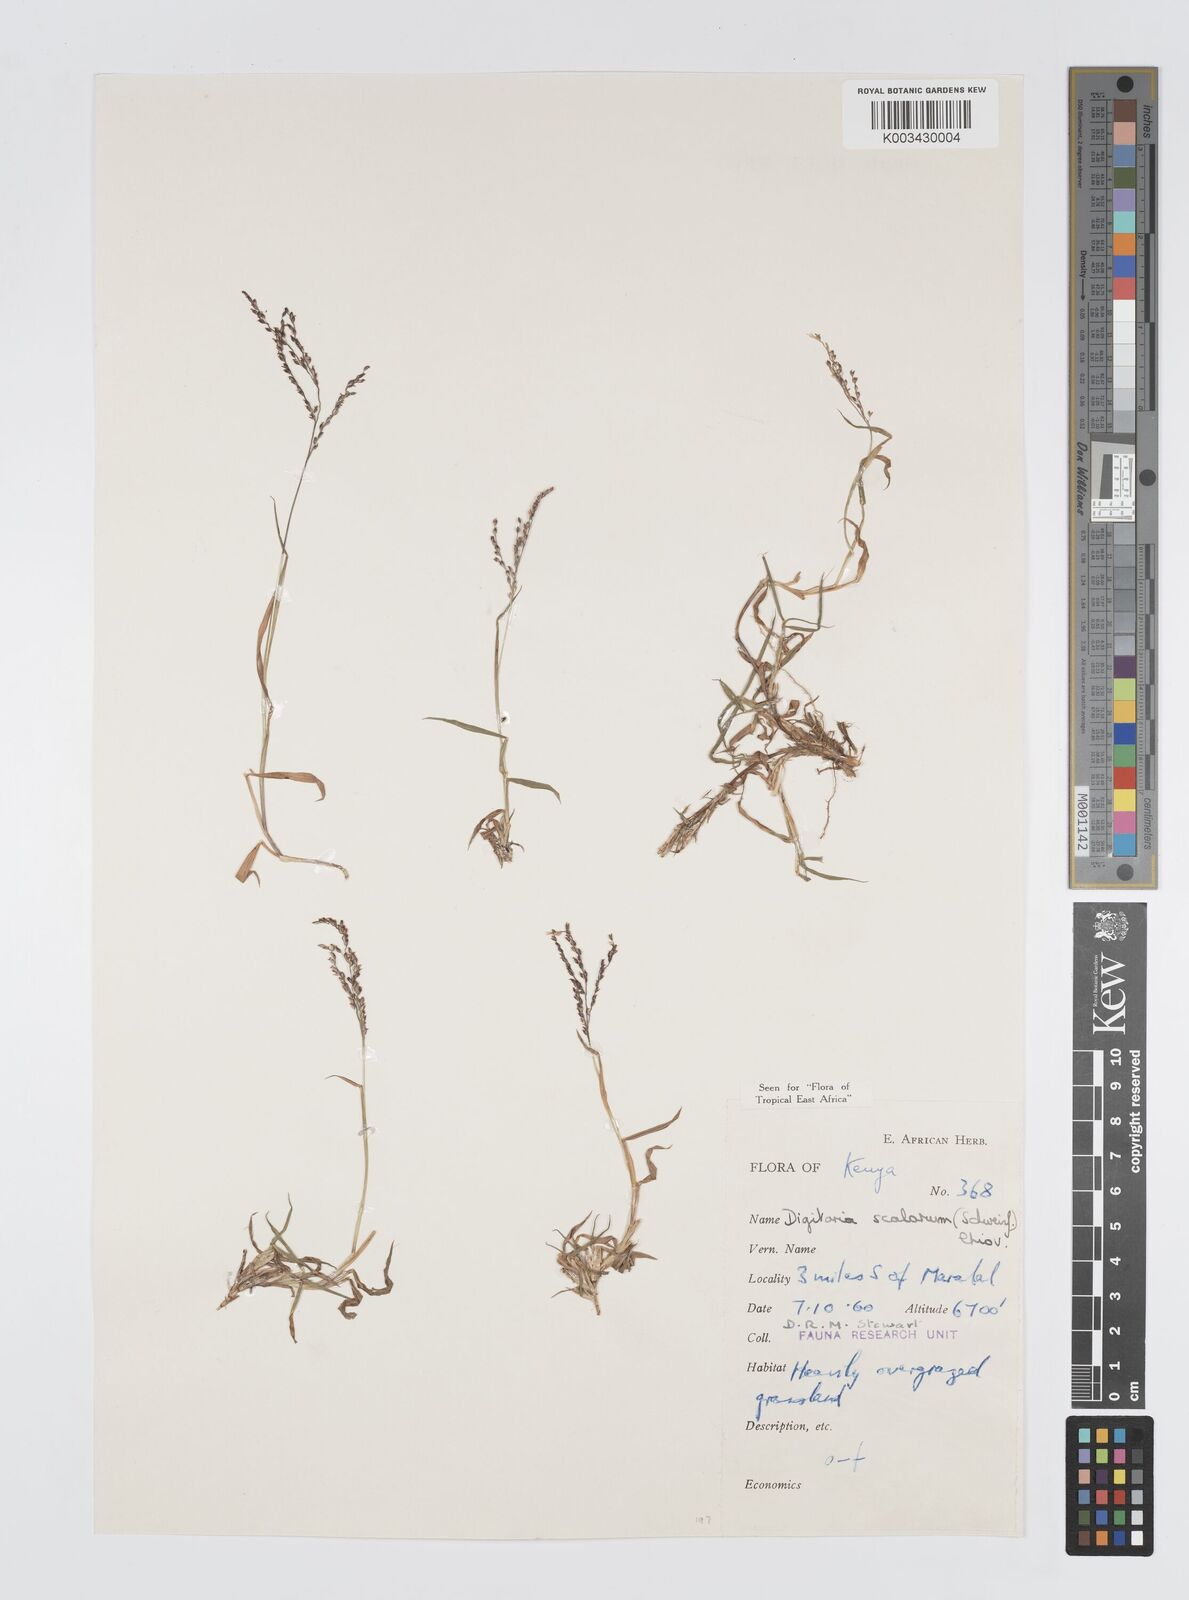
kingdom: Plantae
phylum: Tracheophyta
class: Liliopsida
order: Poales
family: Poaceae
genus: Digitaria
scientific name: Digitaria abyssinica
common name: African couchgrass
